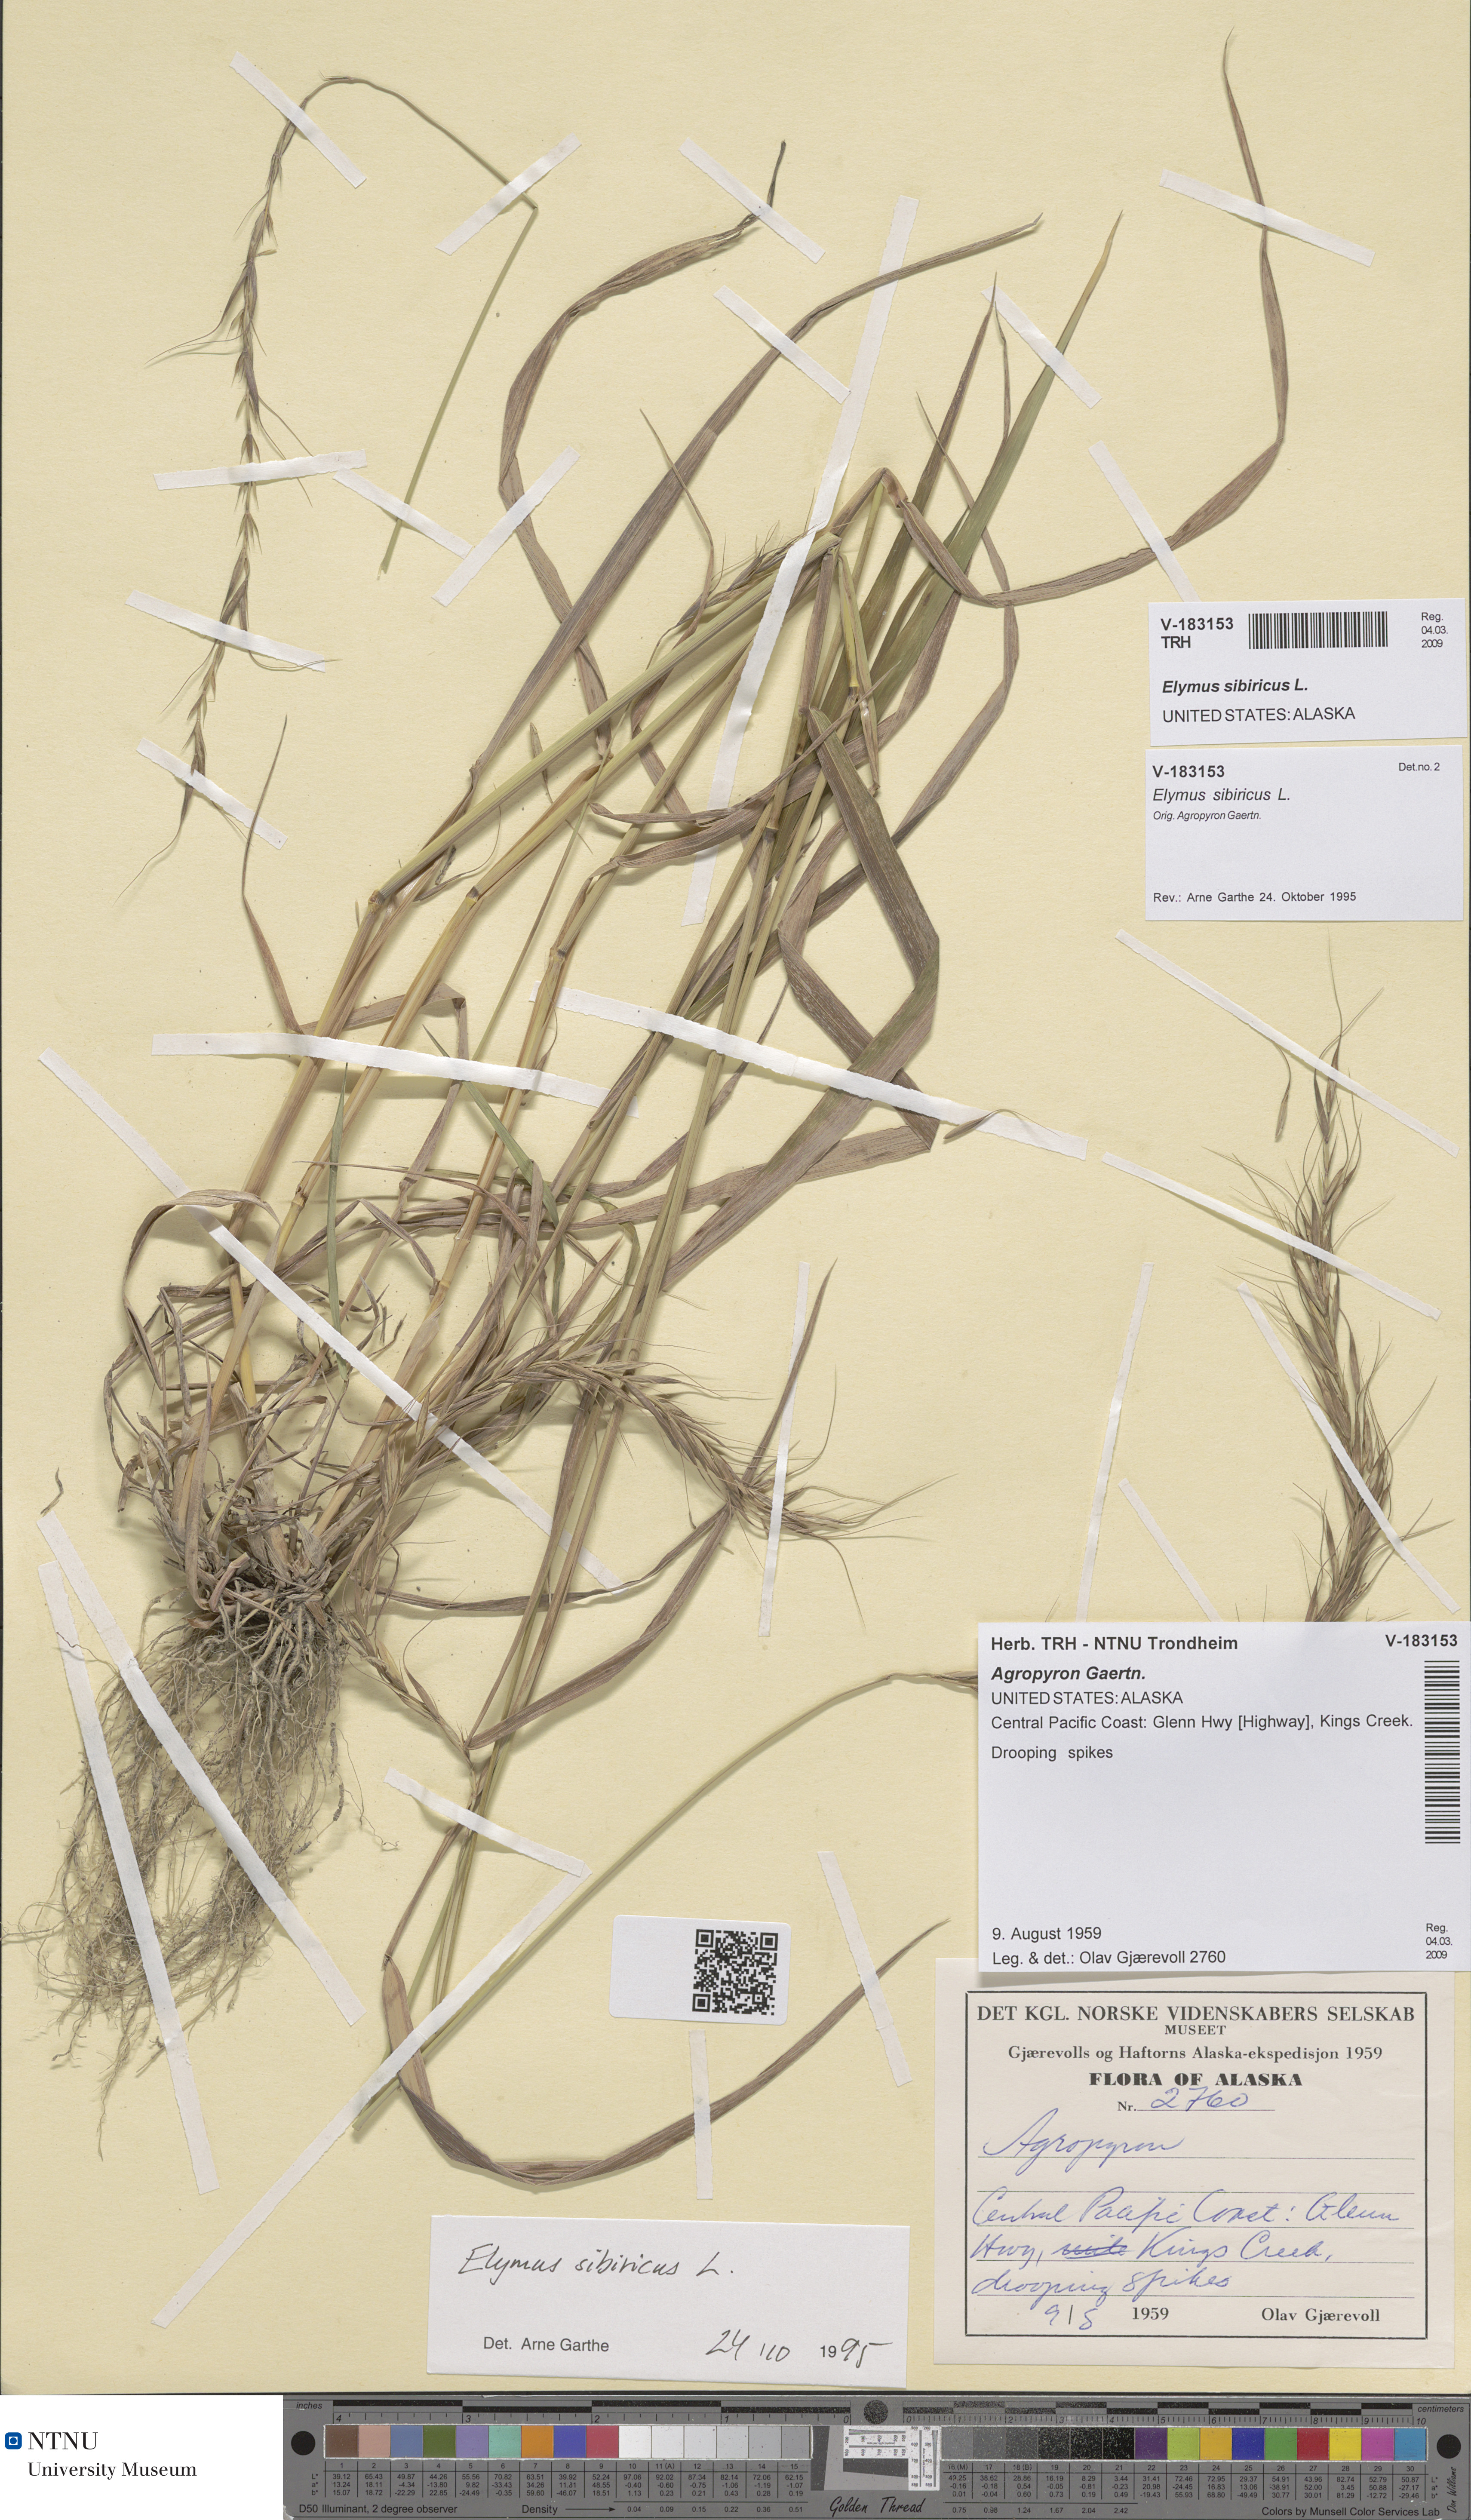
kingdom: Plantae
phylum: Tracheophyta
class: Liliopsida
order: Poales
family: Poaceae
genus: Elymus
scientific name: Elymus sibiricus
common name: Siberian wildrye
